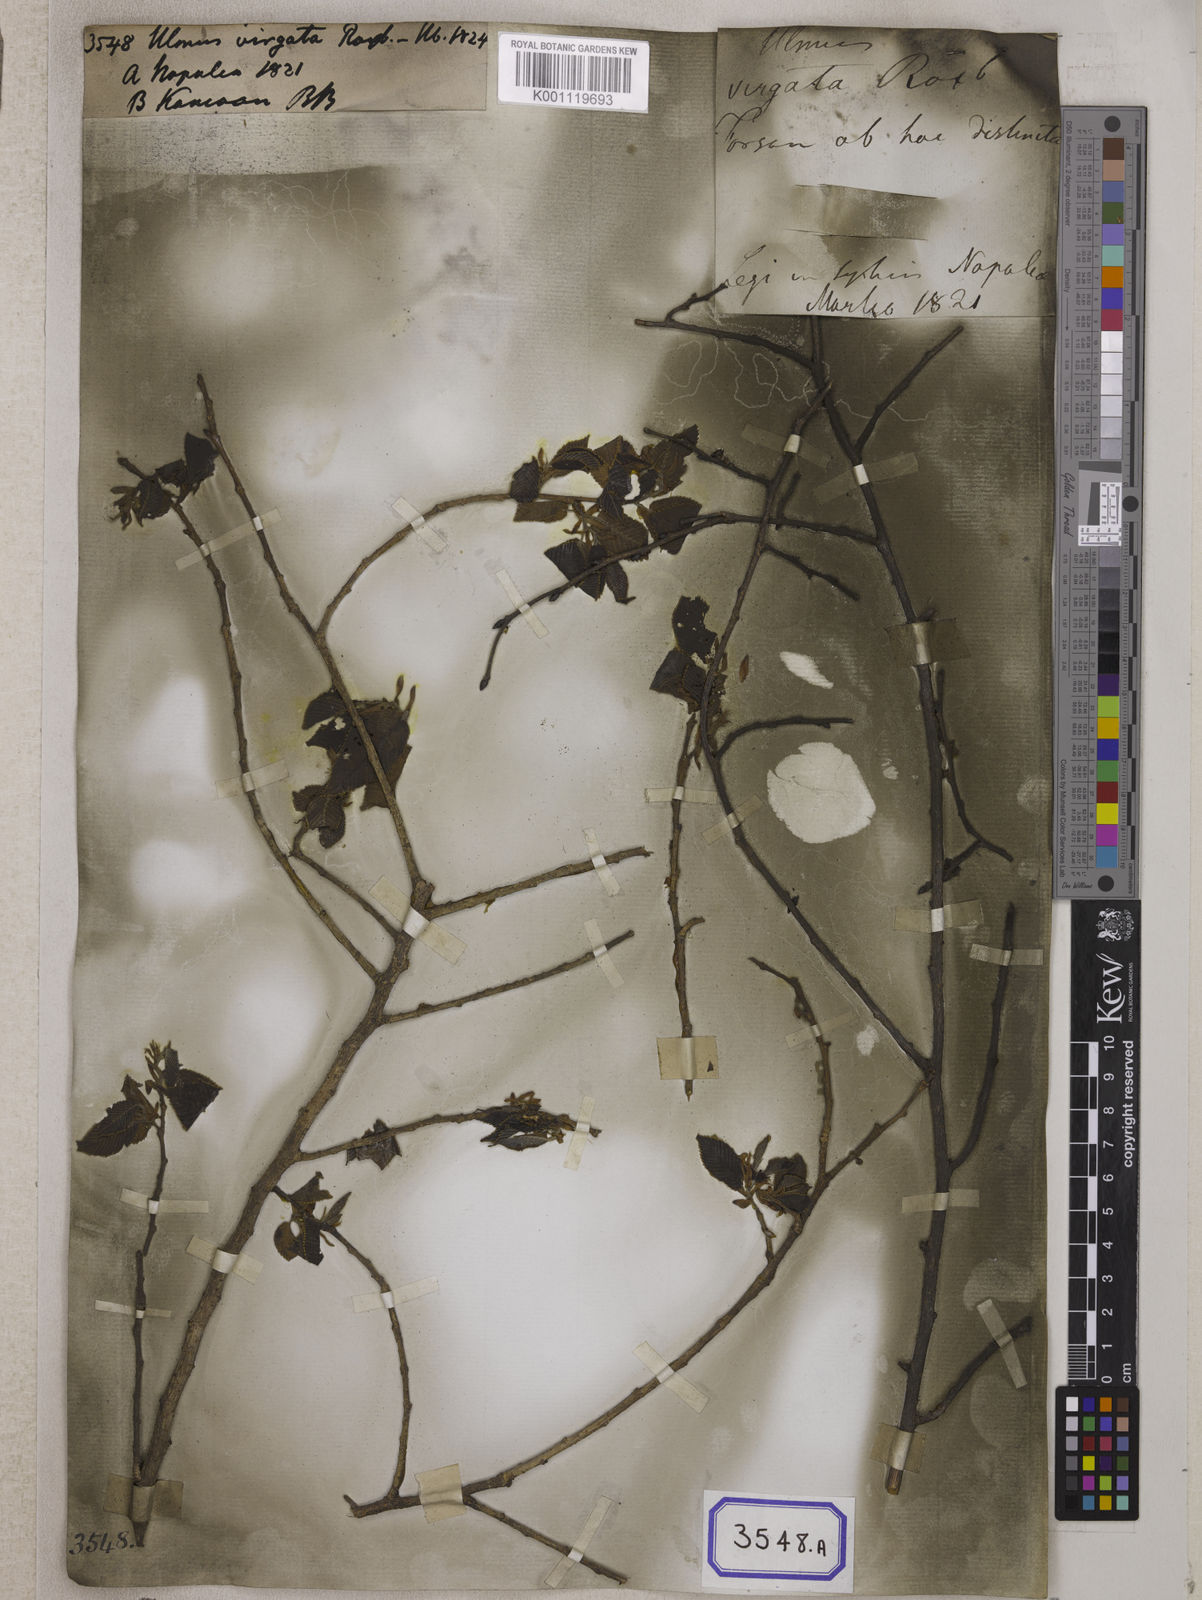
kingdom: Plantae
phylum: Tracheophyta
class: Magnoliopsida
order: Rosales
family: Ulmaceae
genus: Ulmus
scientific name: Ulmus parvifolia
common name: Chinese elm
